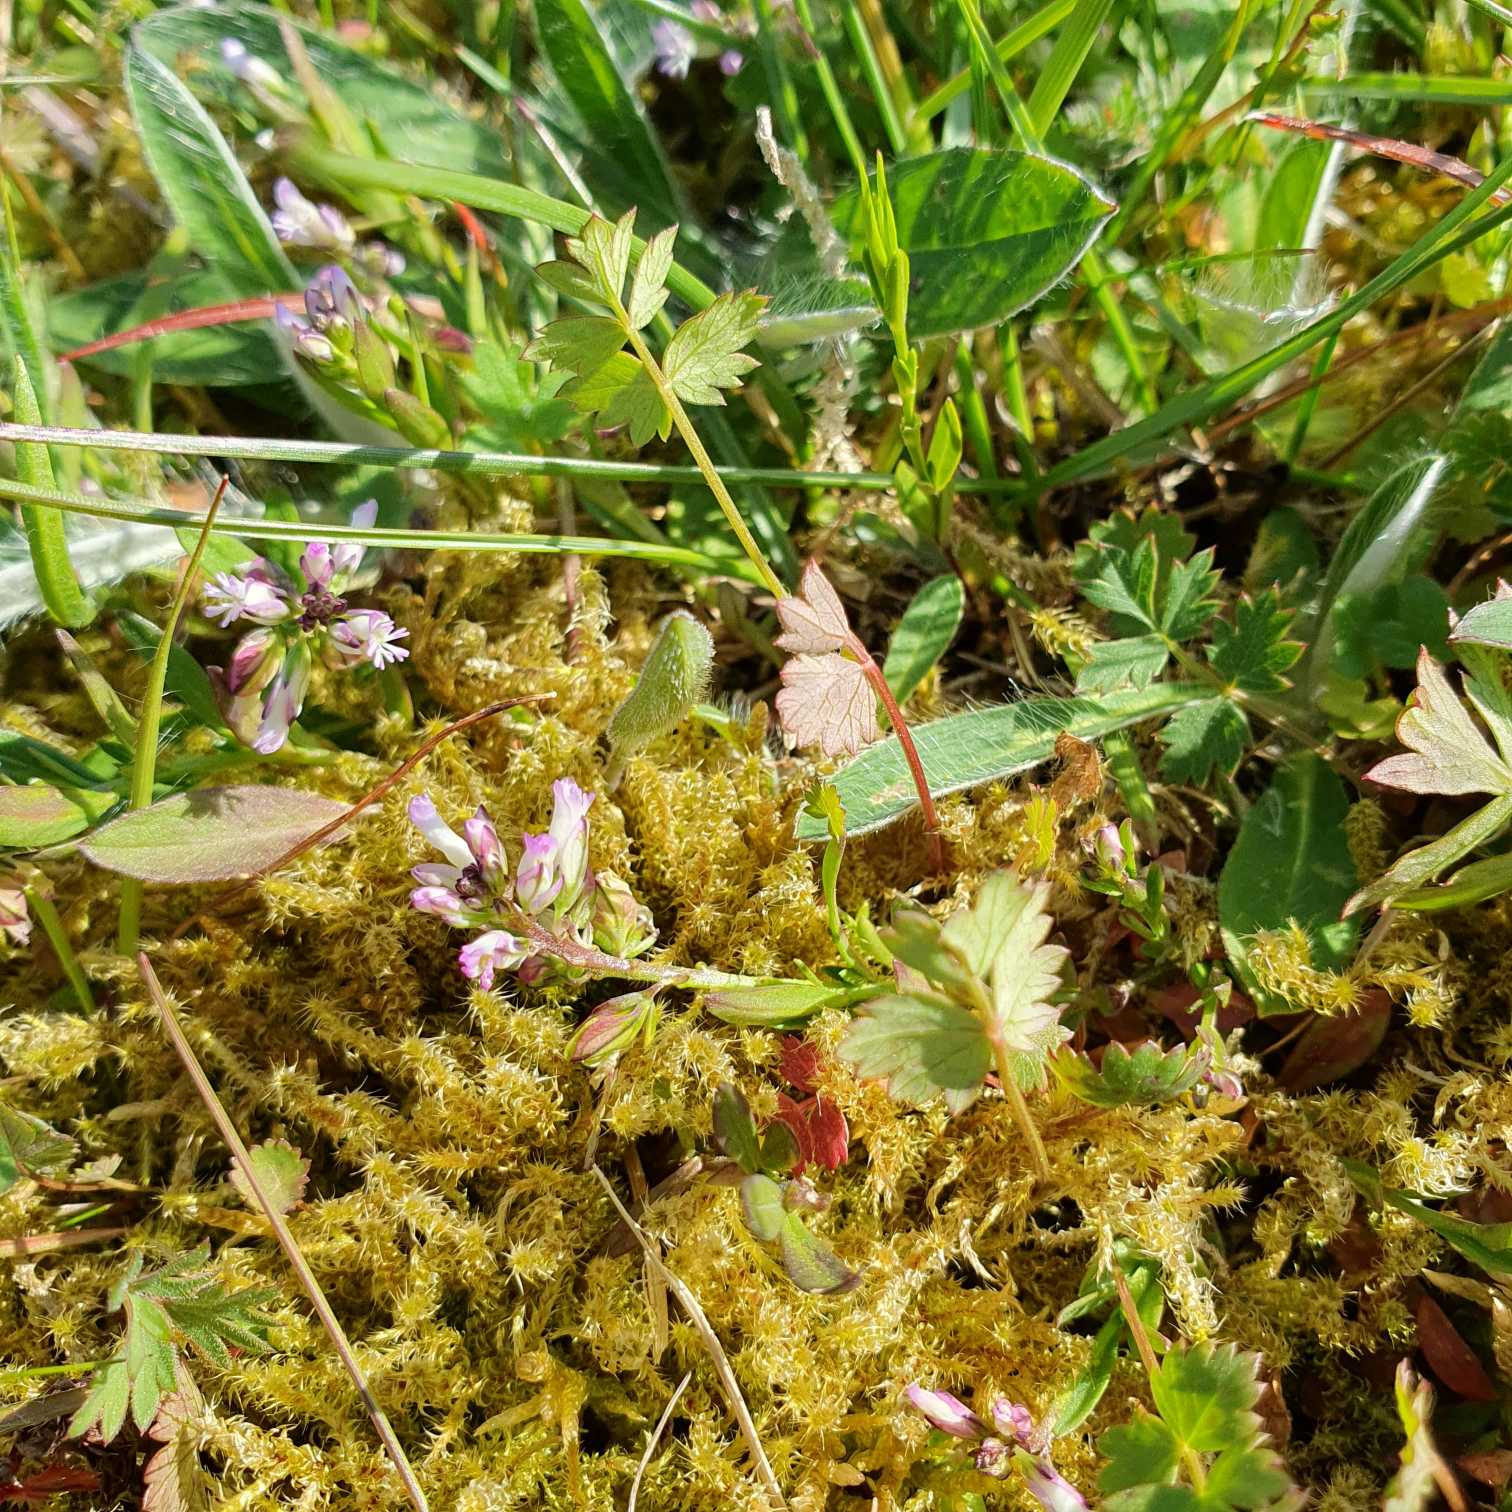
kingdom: Plantae
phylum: Tracheophyta
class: Magnoliopsida
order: Fabales
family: Polygalaceae
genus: Polygala
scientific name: Polygala vulgaris
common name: Almindelig mælkeurt
